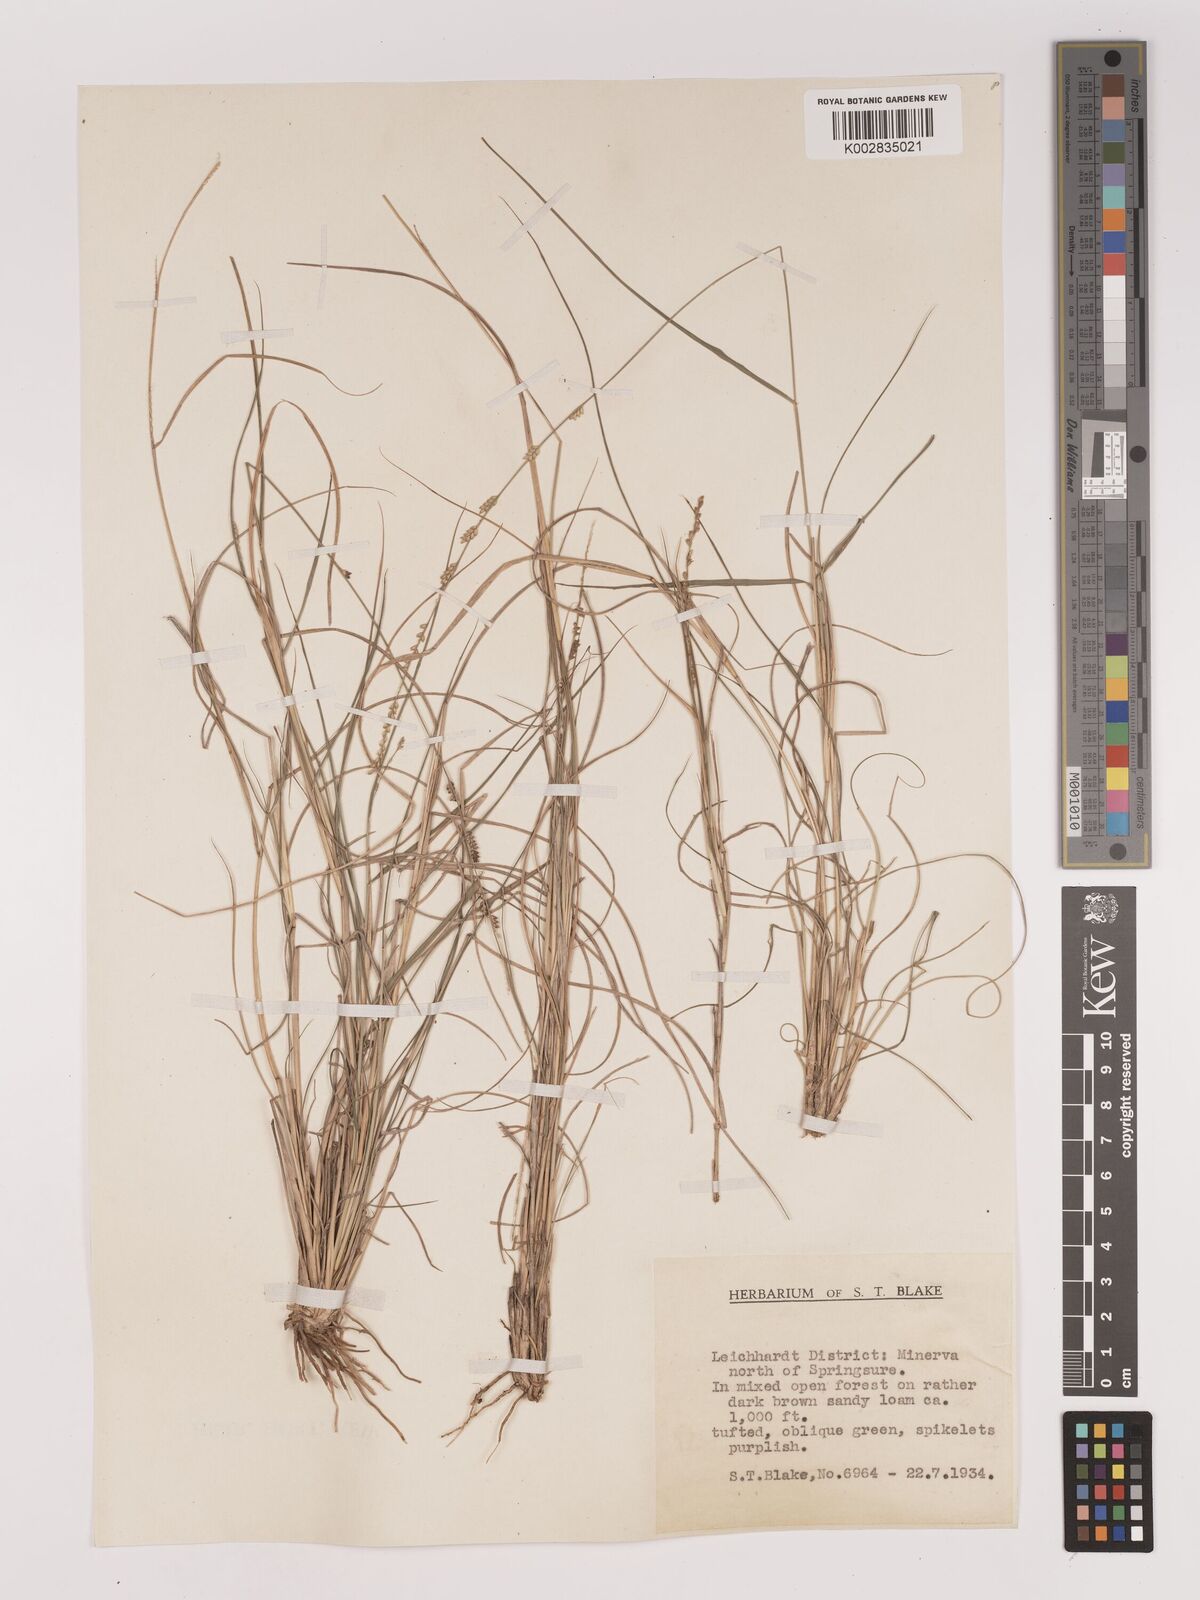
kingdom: Plantae
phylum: Tracheophyta
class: Liliopsida
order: Poales
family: Poaceae
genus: Setaria
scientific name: Setaria
